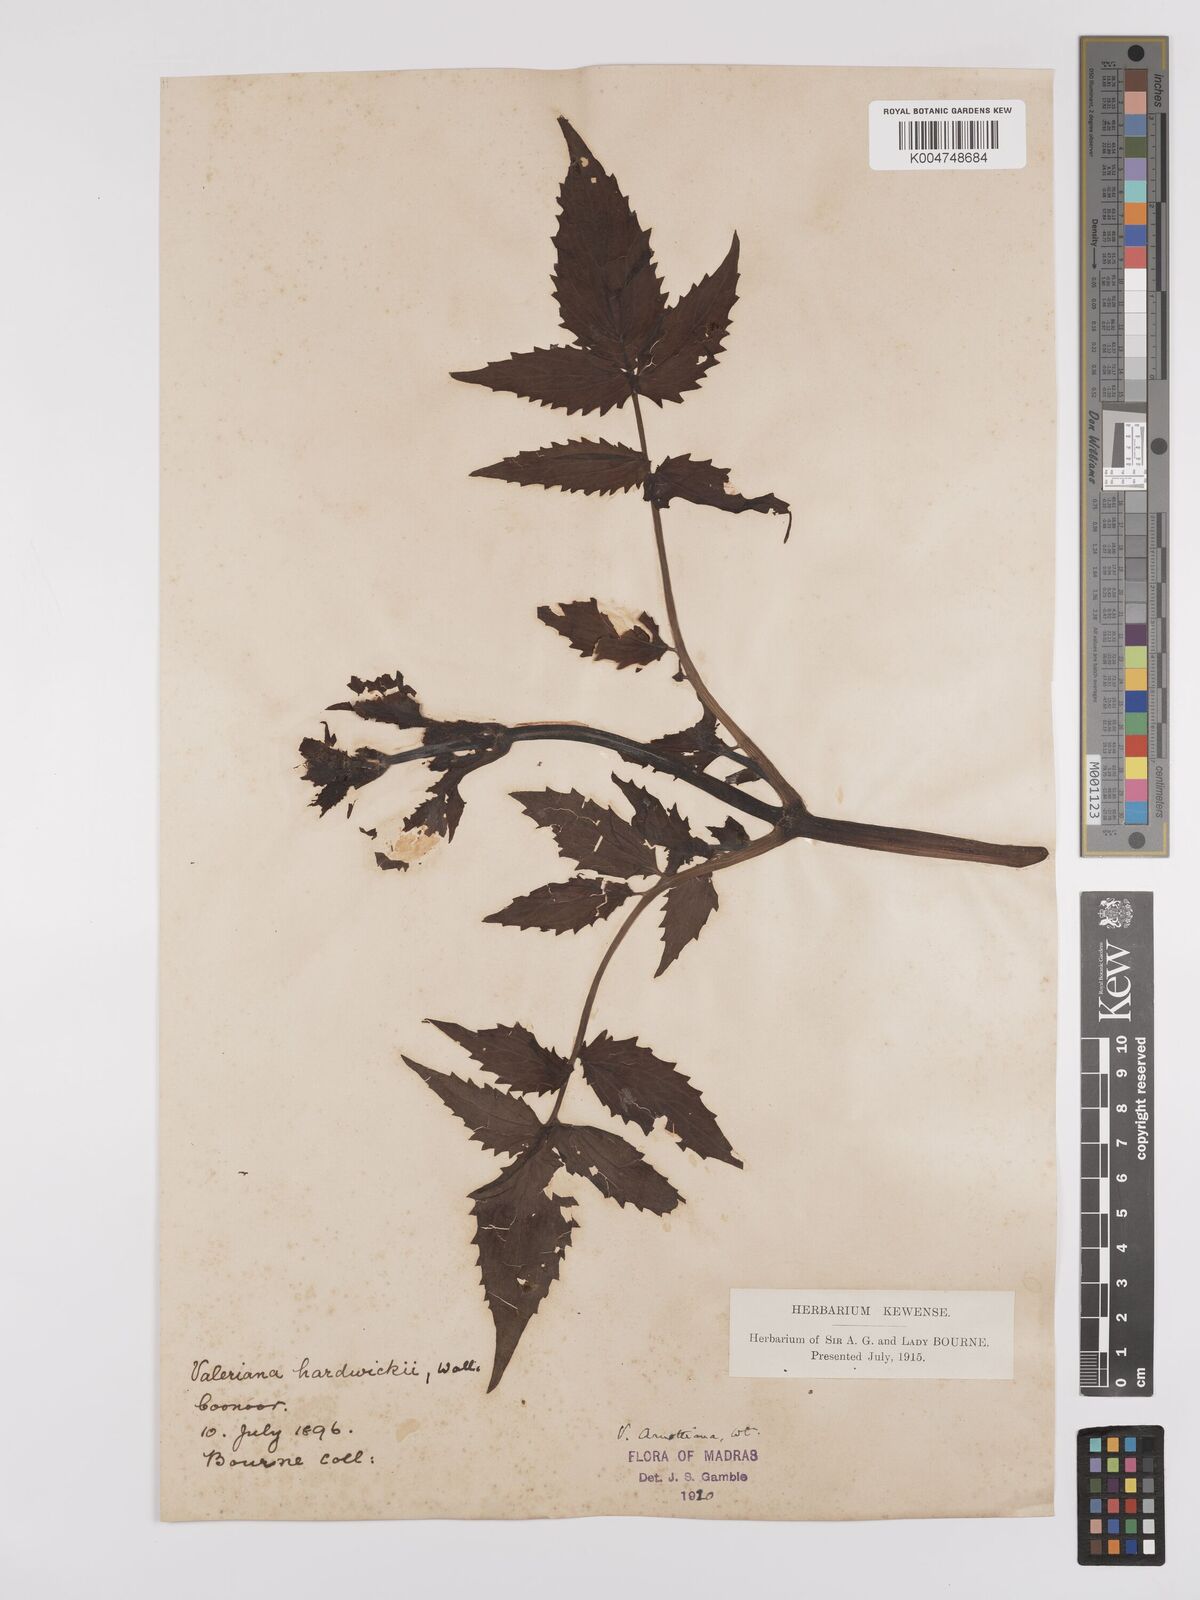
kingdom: Plantae
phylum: Tracheophyta
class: Magnoliopsida
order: Dipsacales
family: Caprifoliaceae
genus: Valeriana
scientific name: Valeriana hardwickei
